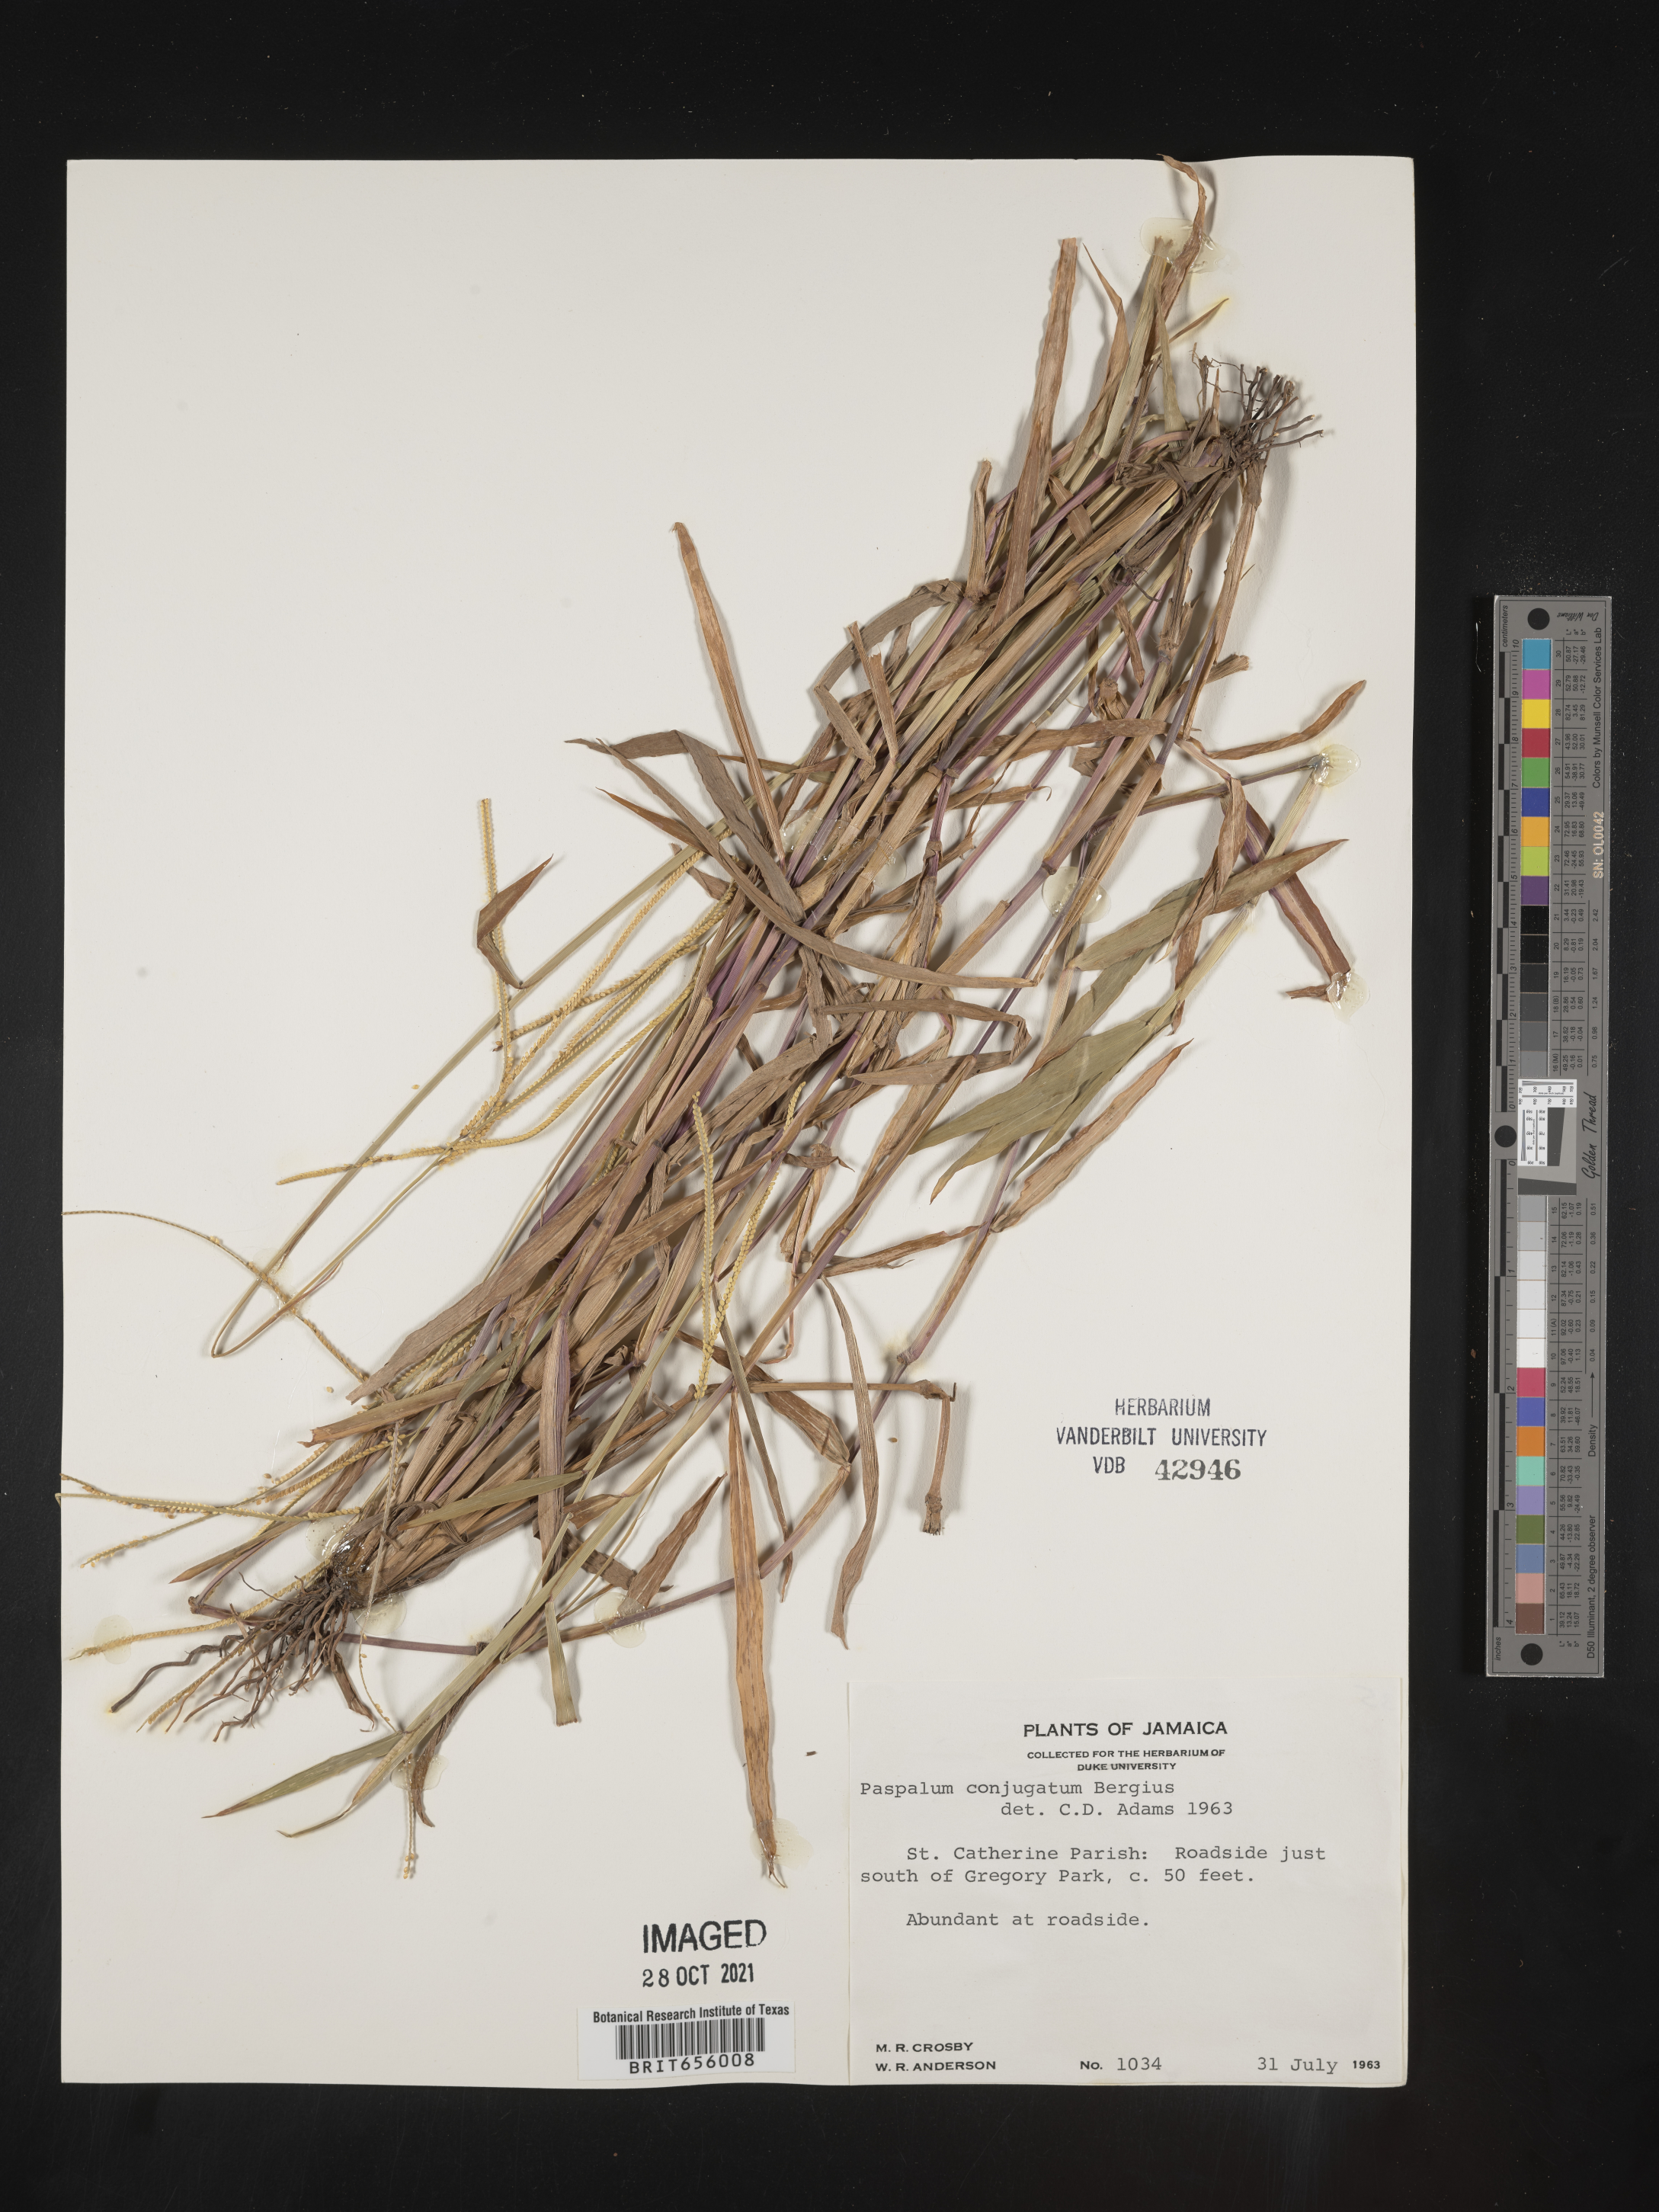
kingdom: Plantae
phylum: Tracheophyta
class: Liliopsida
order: Poales
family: Poaceae
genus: Paspalum
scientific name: Paspalum
